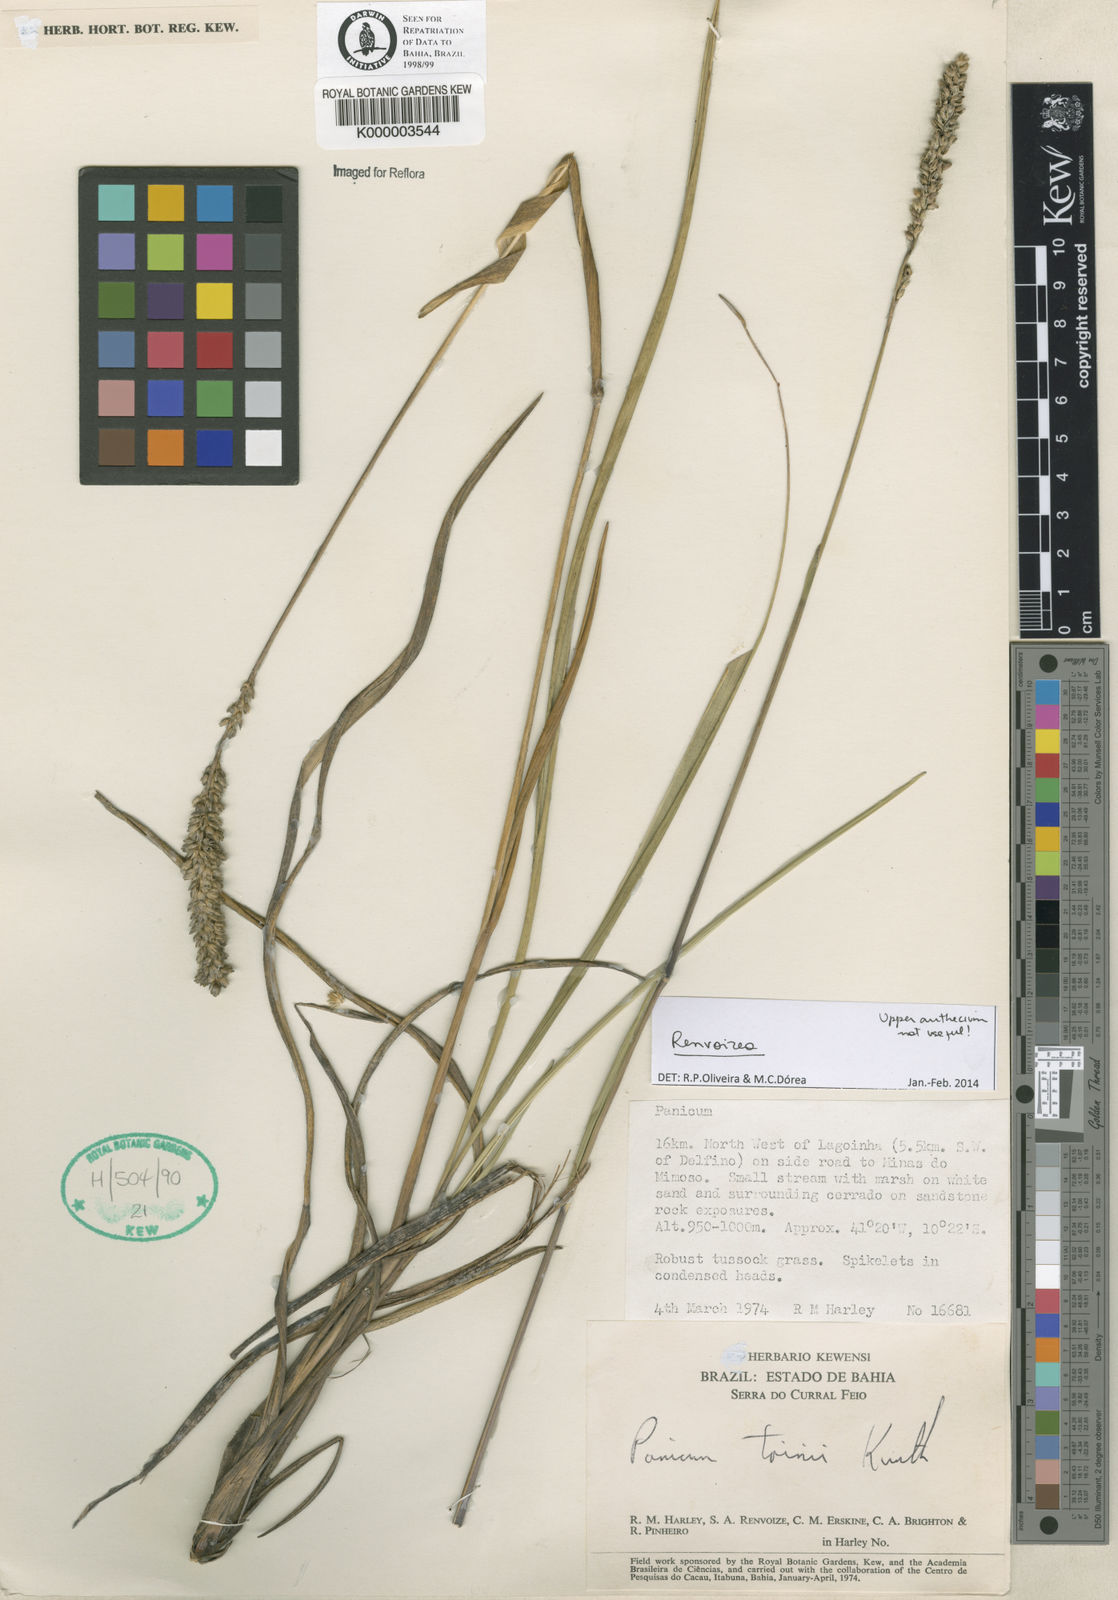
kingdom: Plantae
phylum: Tracheophyta
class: Liliopsida
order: Poales
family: Poaceae
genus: Renvoizea
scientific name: Renvoizea trinii
